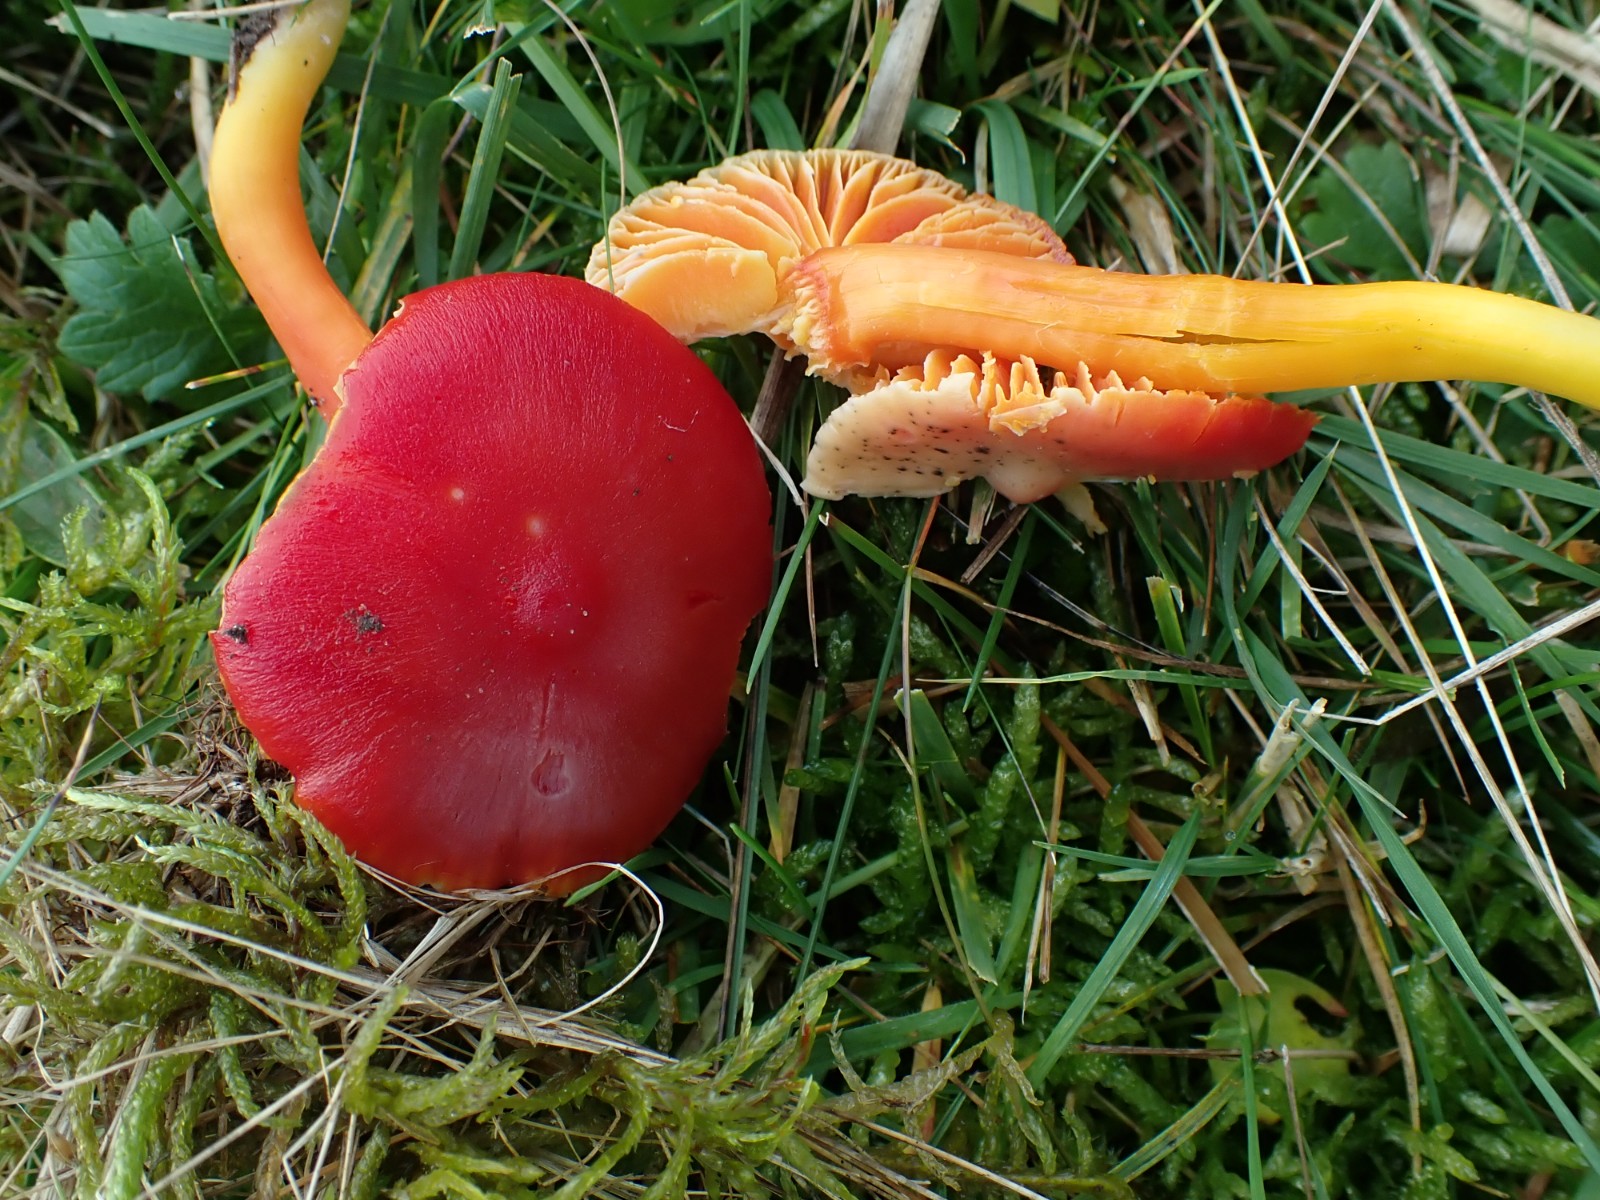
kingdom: Fungi
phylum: Basidiomycota
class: Agaricomycetes
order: Agaricales
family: Hygrophoraceae
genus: Hygrocybe
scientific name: Hygrocybe coccinea
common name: cinnober-vokshat
